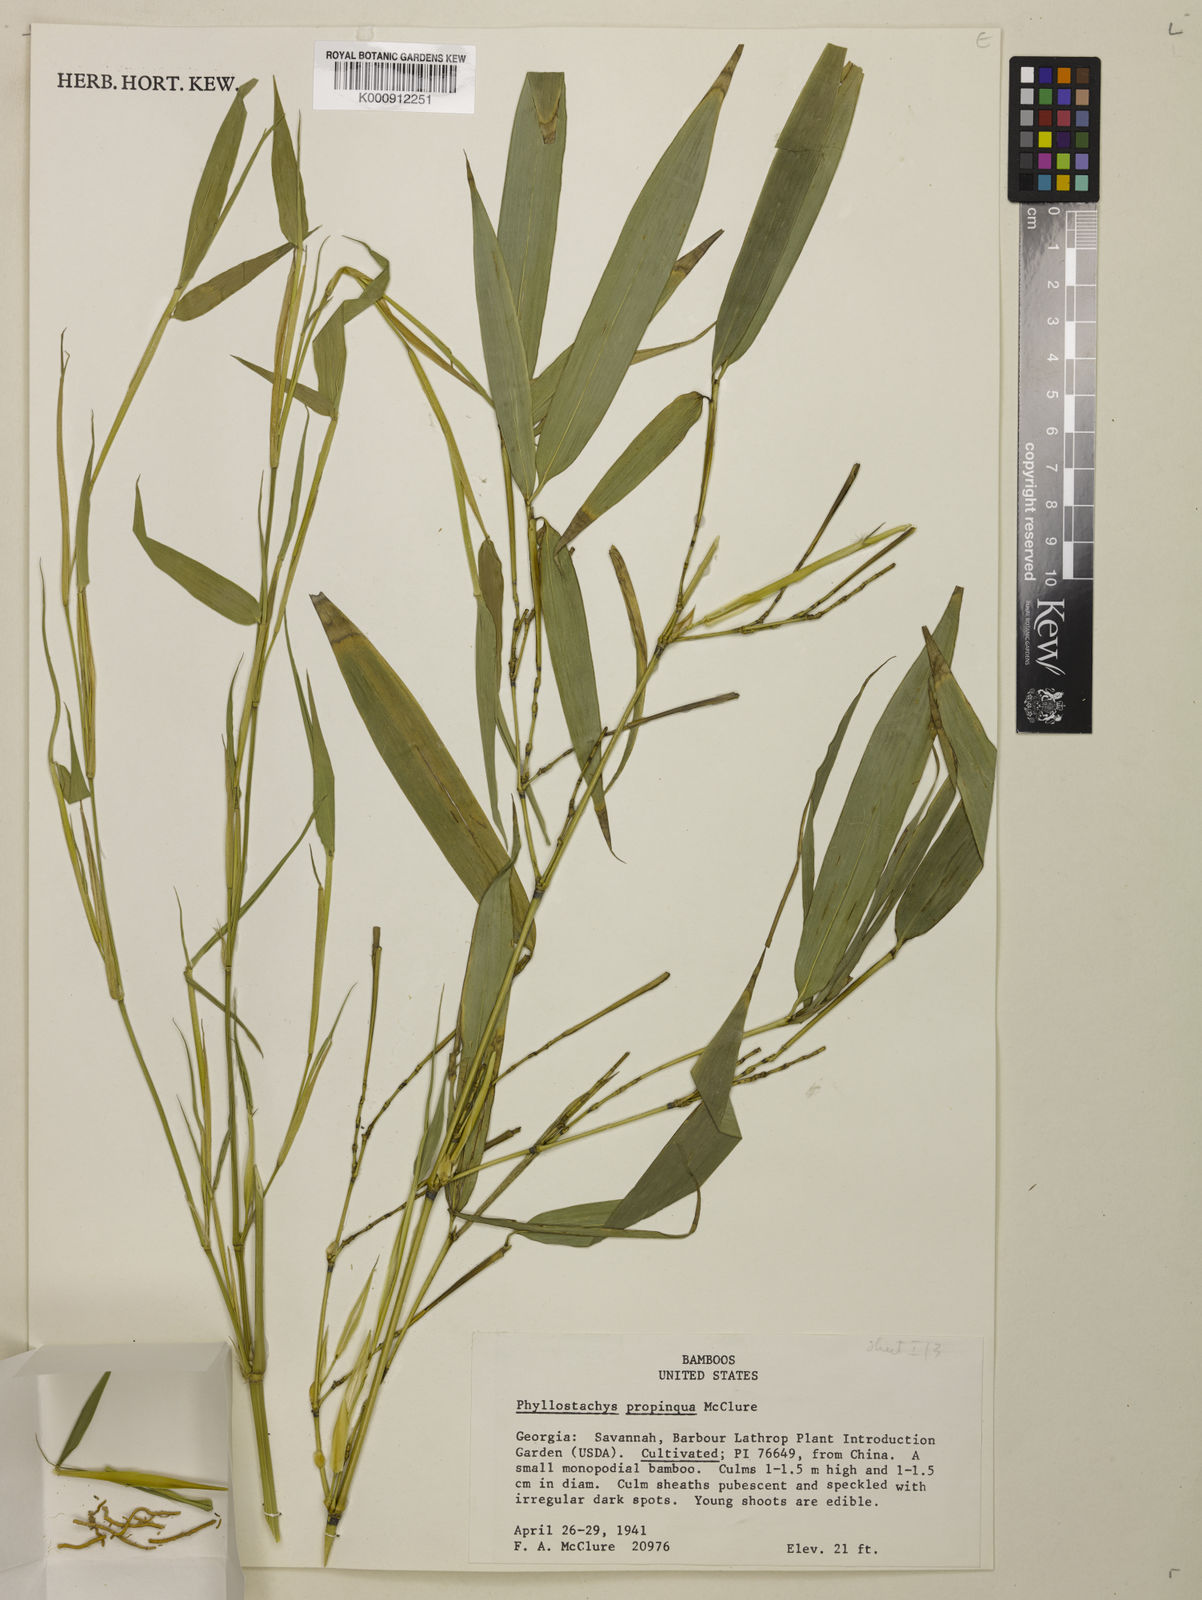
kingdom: Plantae
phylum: Tracheophyta
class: Liliopsida
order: Poales
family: Poaceae
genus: Phyllostachys
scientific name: Phyllostachys propinqua
